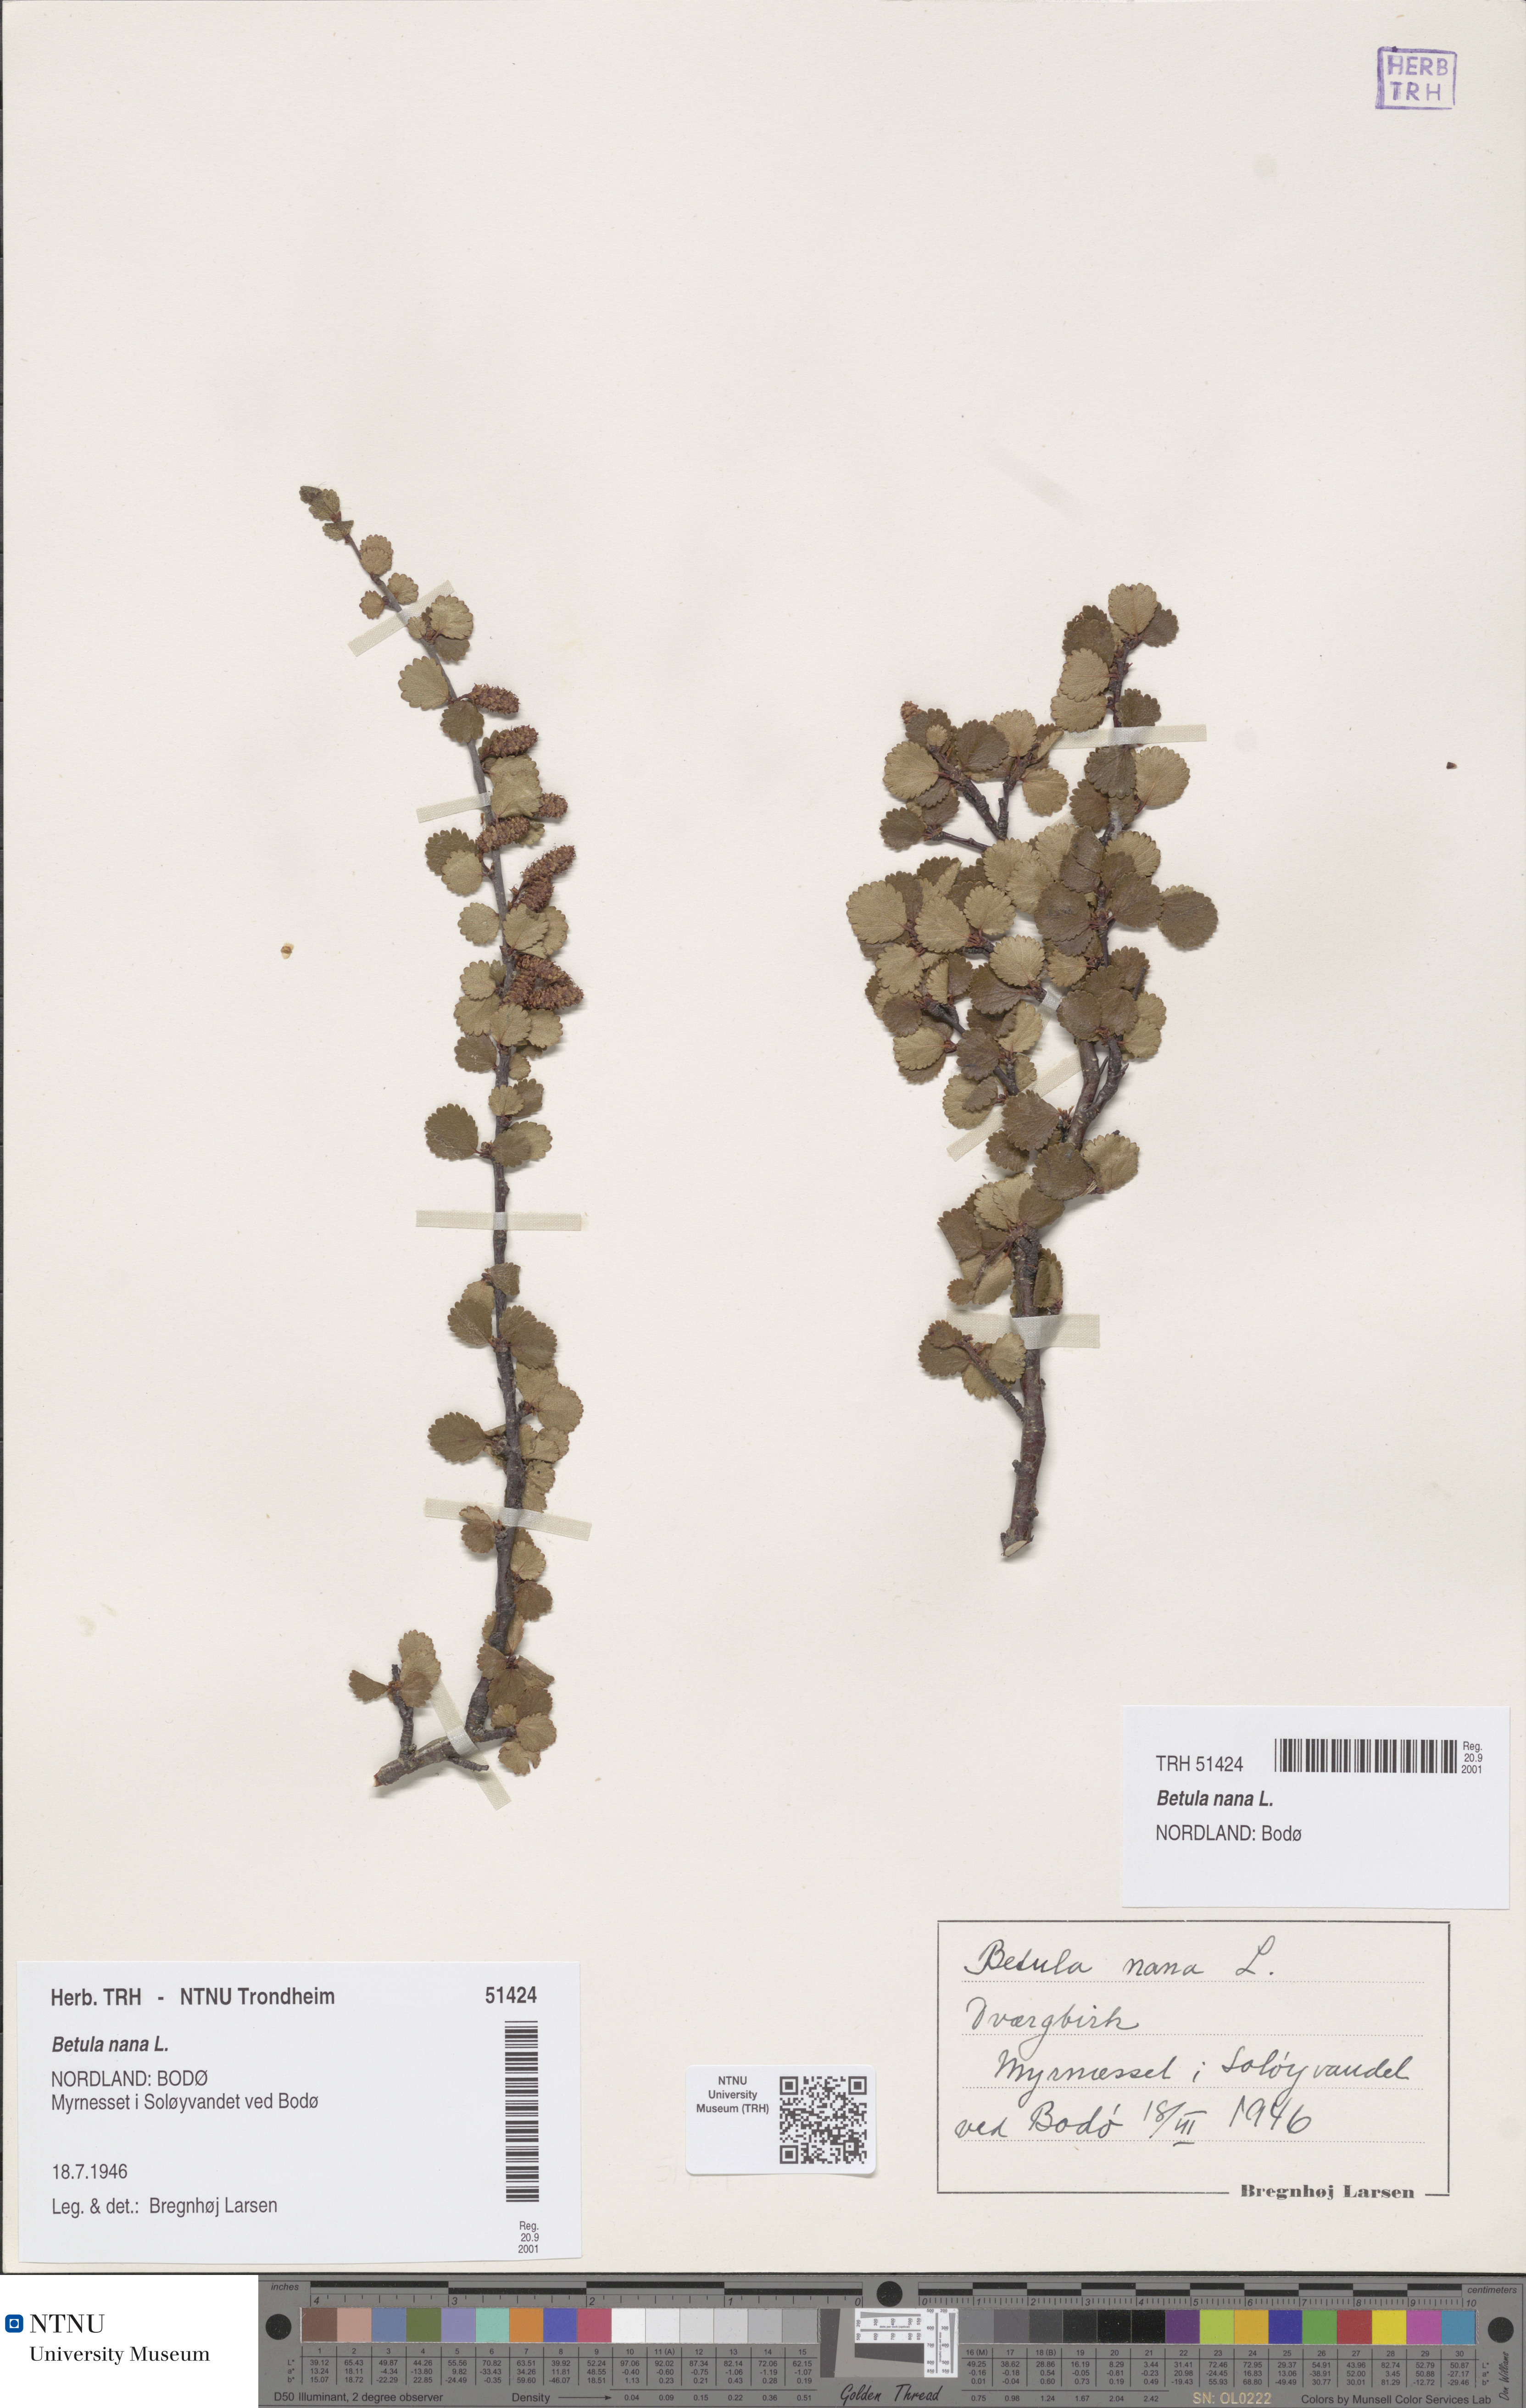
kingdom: Plantae
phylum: Tracheophyta
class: Magnoliopsida
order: Fagales
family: Betulaceae
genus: Betula
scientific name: Betula nana
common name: Arctic dwarf birch
